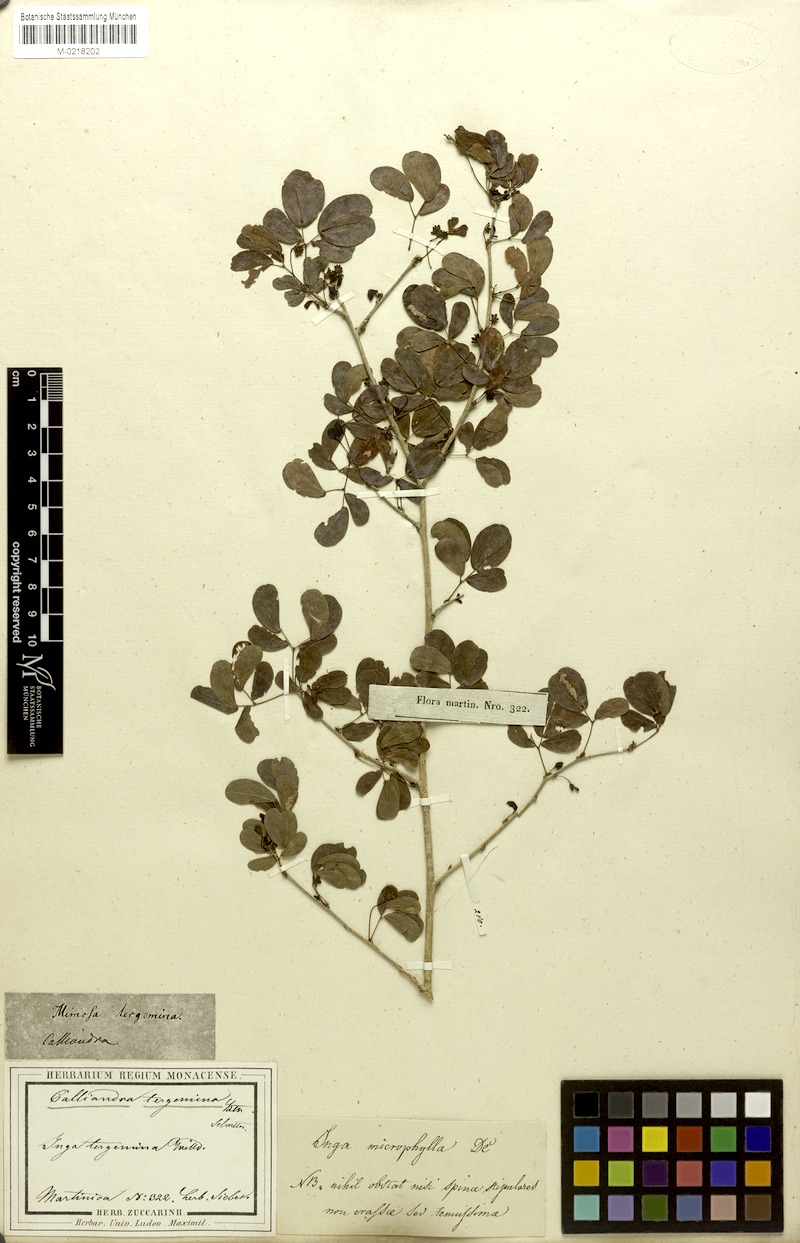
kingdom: Plantae
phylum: Tracheophyta
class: Magnoliopsida
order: Fabales
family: Fabaceae
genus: Calliandra
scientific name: Calliandra tergemina
